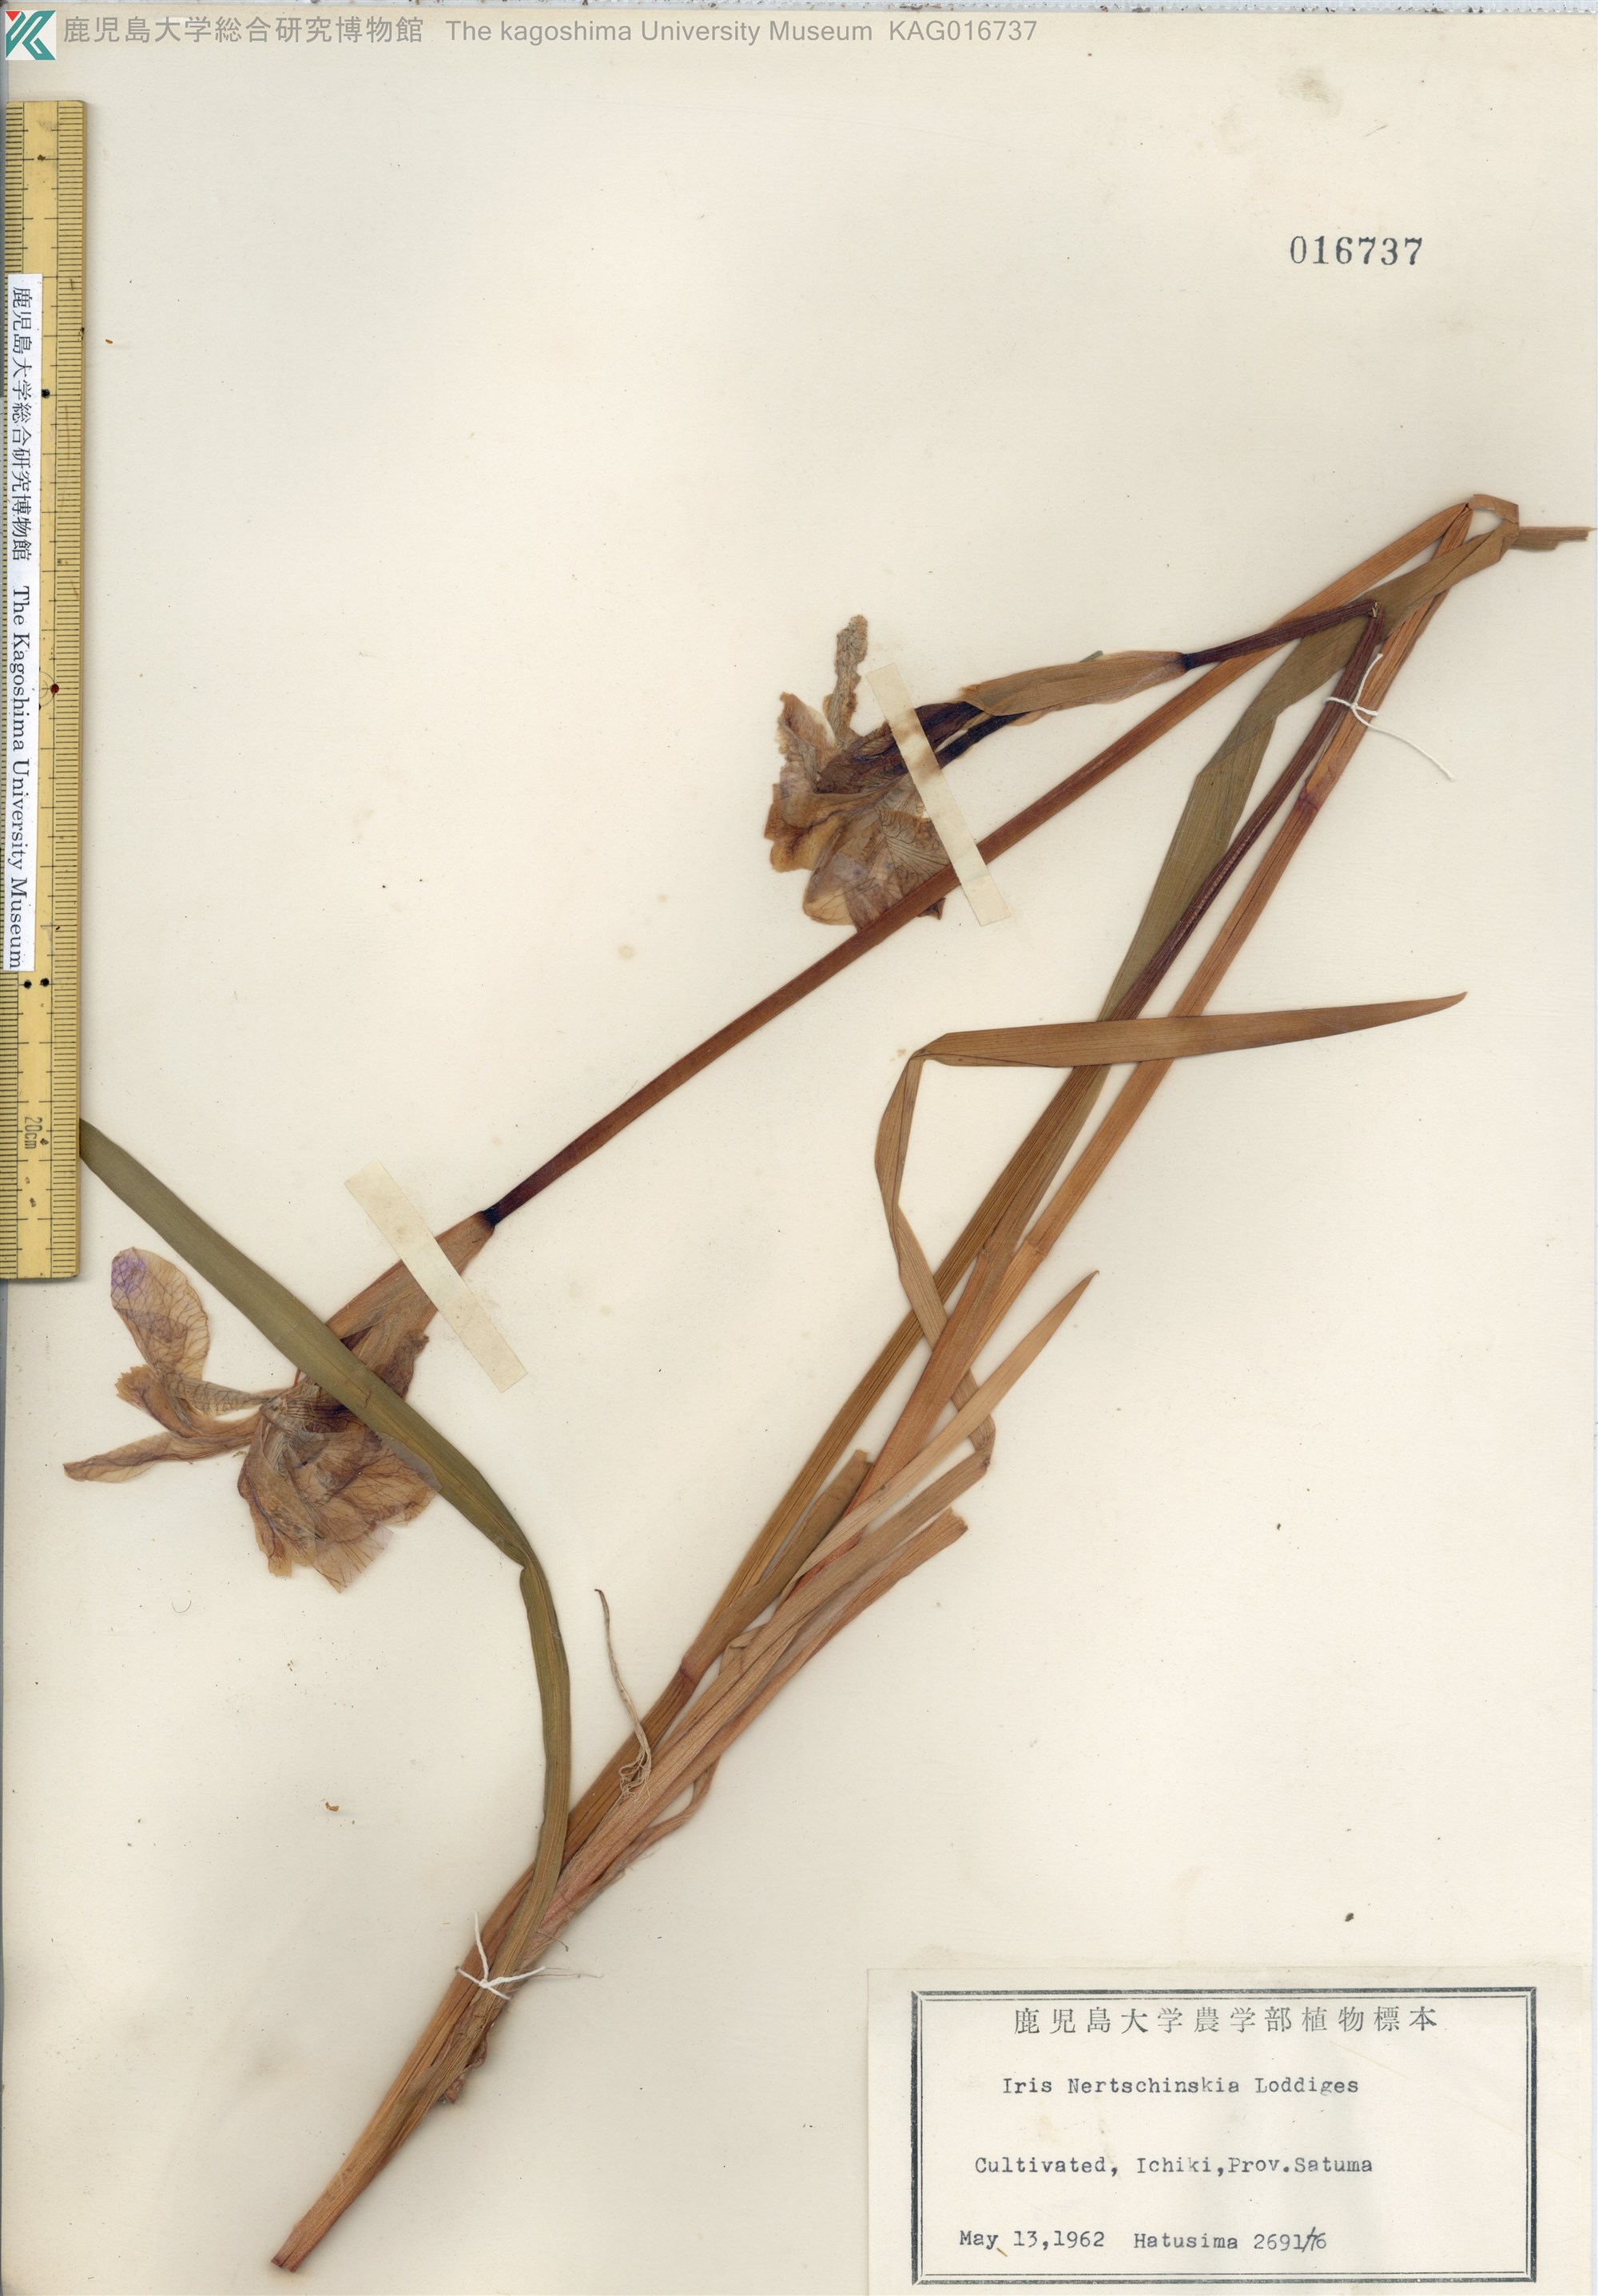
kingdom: Plantae
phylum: Tracheophyta
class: Liliopsida
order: Asparagales
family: Iridaceae
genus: Iris
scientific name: Iris sanguinea
